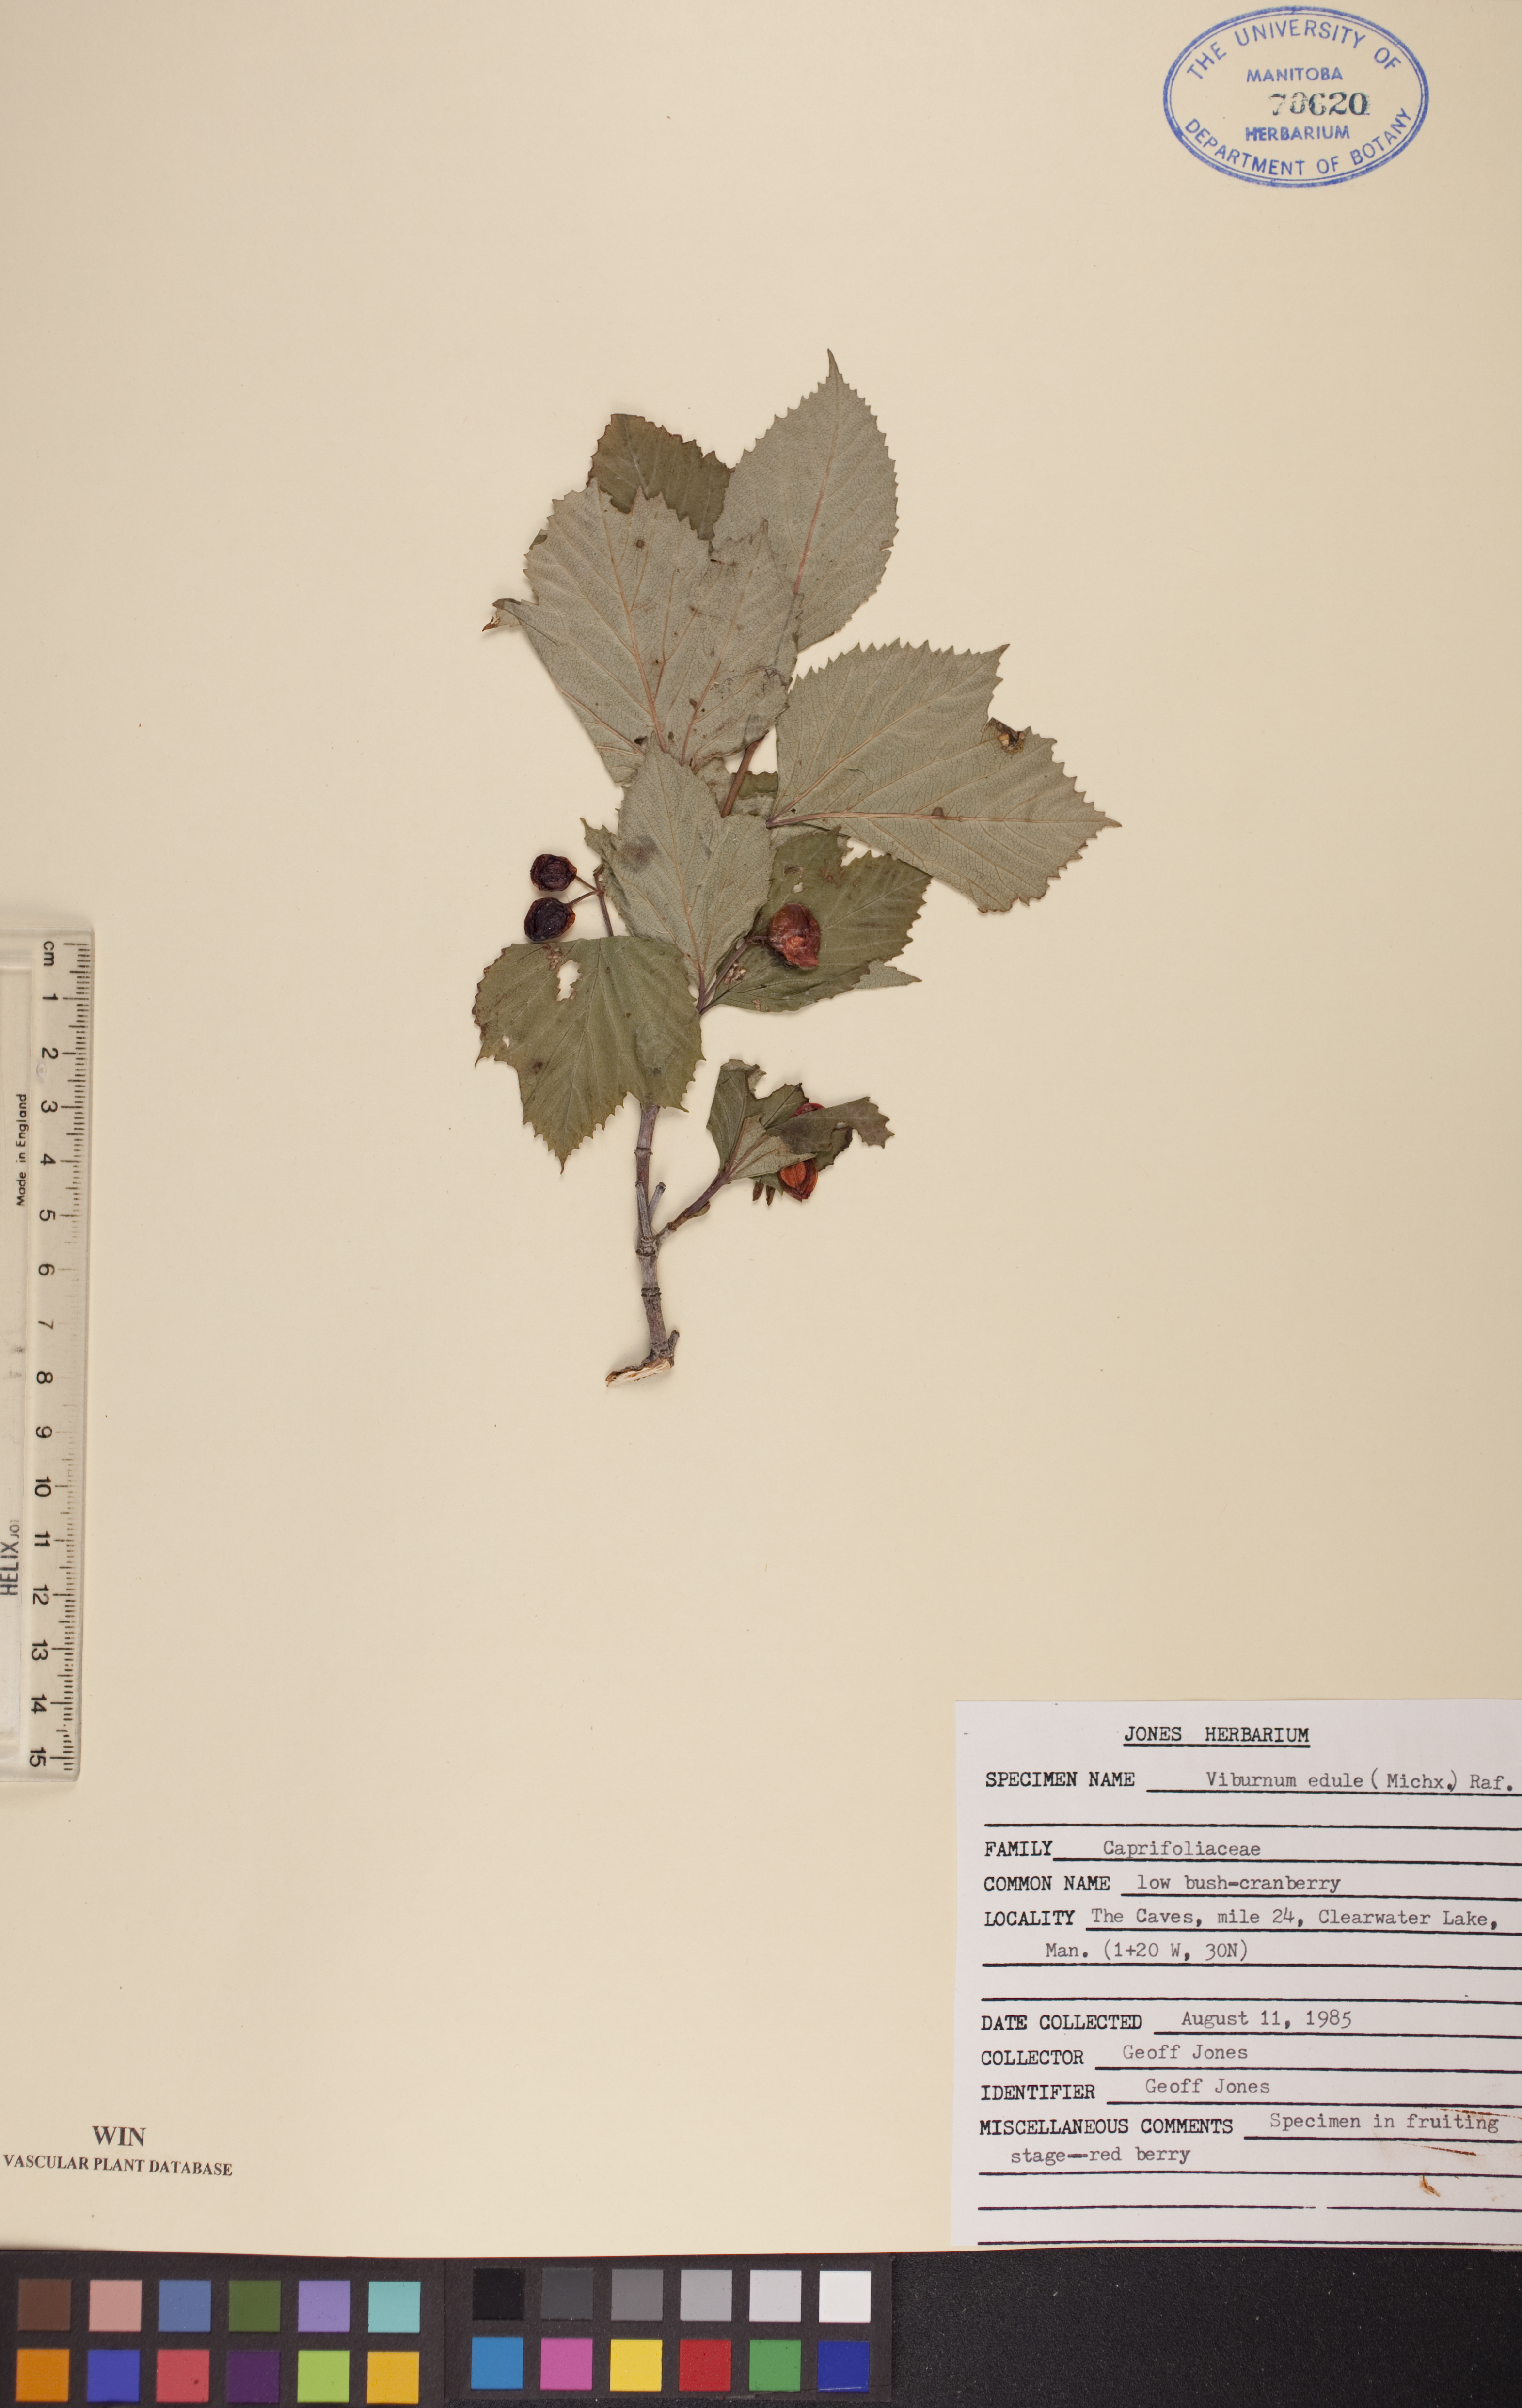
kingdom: Plantae
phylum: Tracheophyta
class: Magnoliopsida
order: Dipsacales
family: Viburnaceae
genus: Viburnum
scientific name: Viburnum edule
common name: Mooseberry
